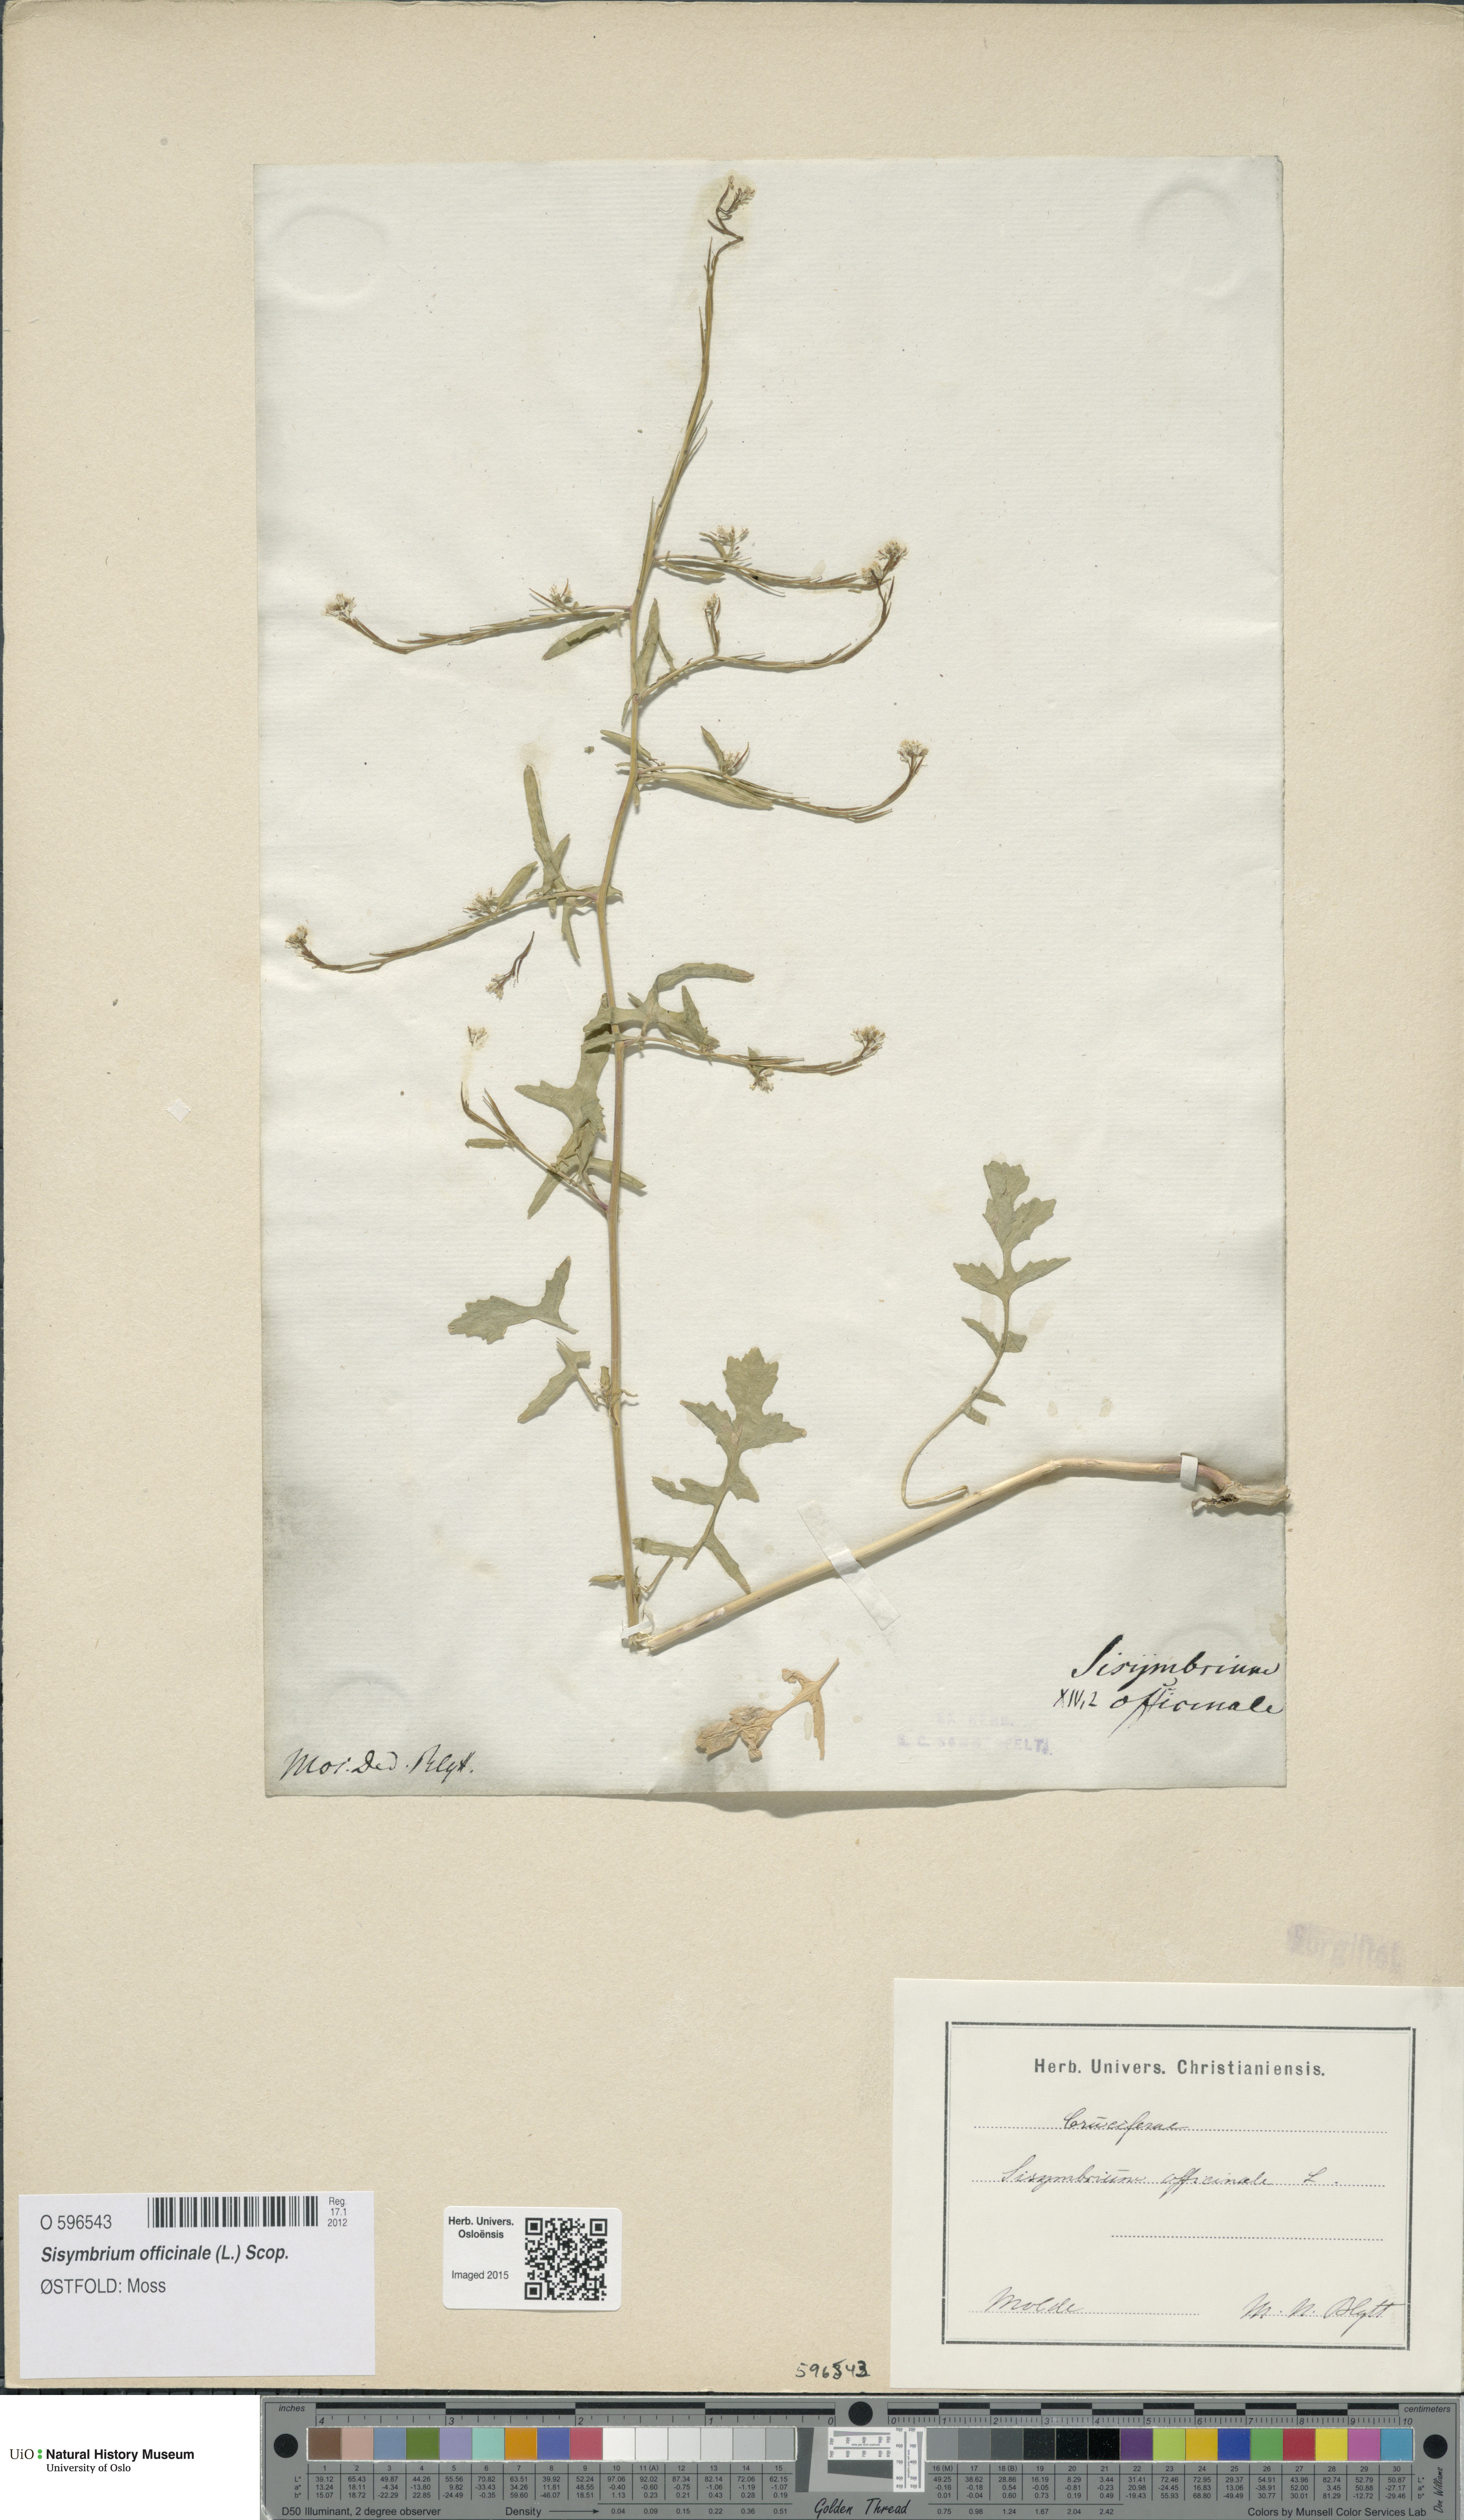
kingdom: Plantae
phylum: Tracheophyta
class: Magnoliopsida
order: Brassicales
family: Brassicaceae
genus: Sisymbrium
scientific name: Sisymbrium officinale
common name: Hedge mustard
